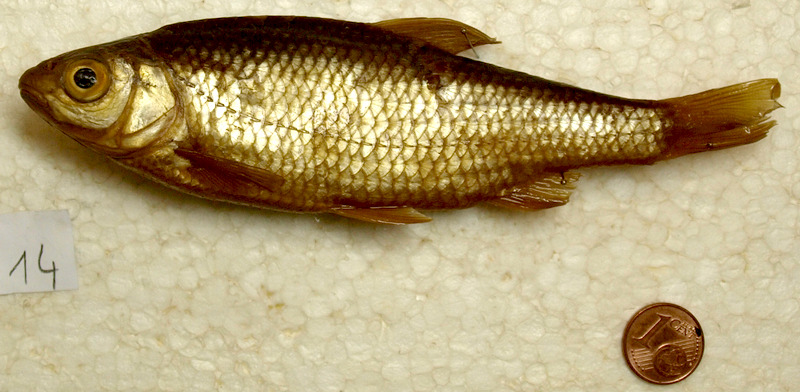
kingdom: Animalia
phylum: Chordata
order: Cypriniformes
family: Cyprinidae
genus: Rutilus
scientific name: Rutilus rutilus
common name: Roach
